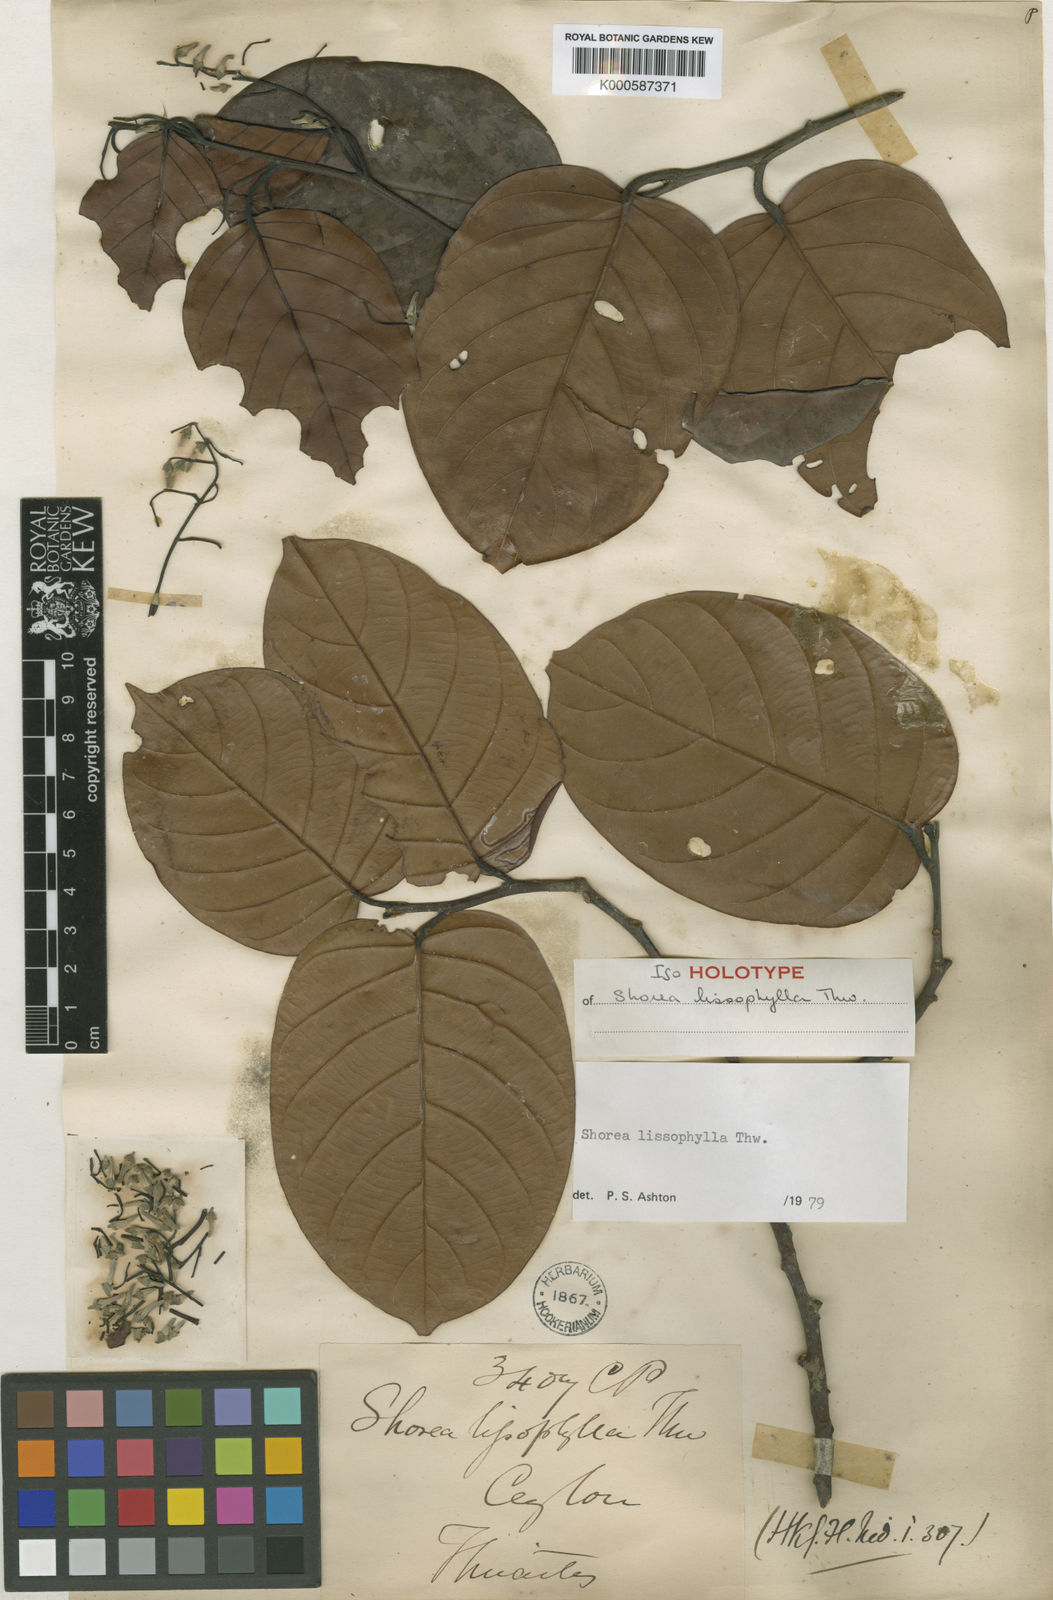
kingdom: Plantae
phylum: Tracheophyta
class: Magnoliopsida
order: Malvales
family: Dipterocarpaceae
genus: Shorea
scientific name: Shorea lissophylla
